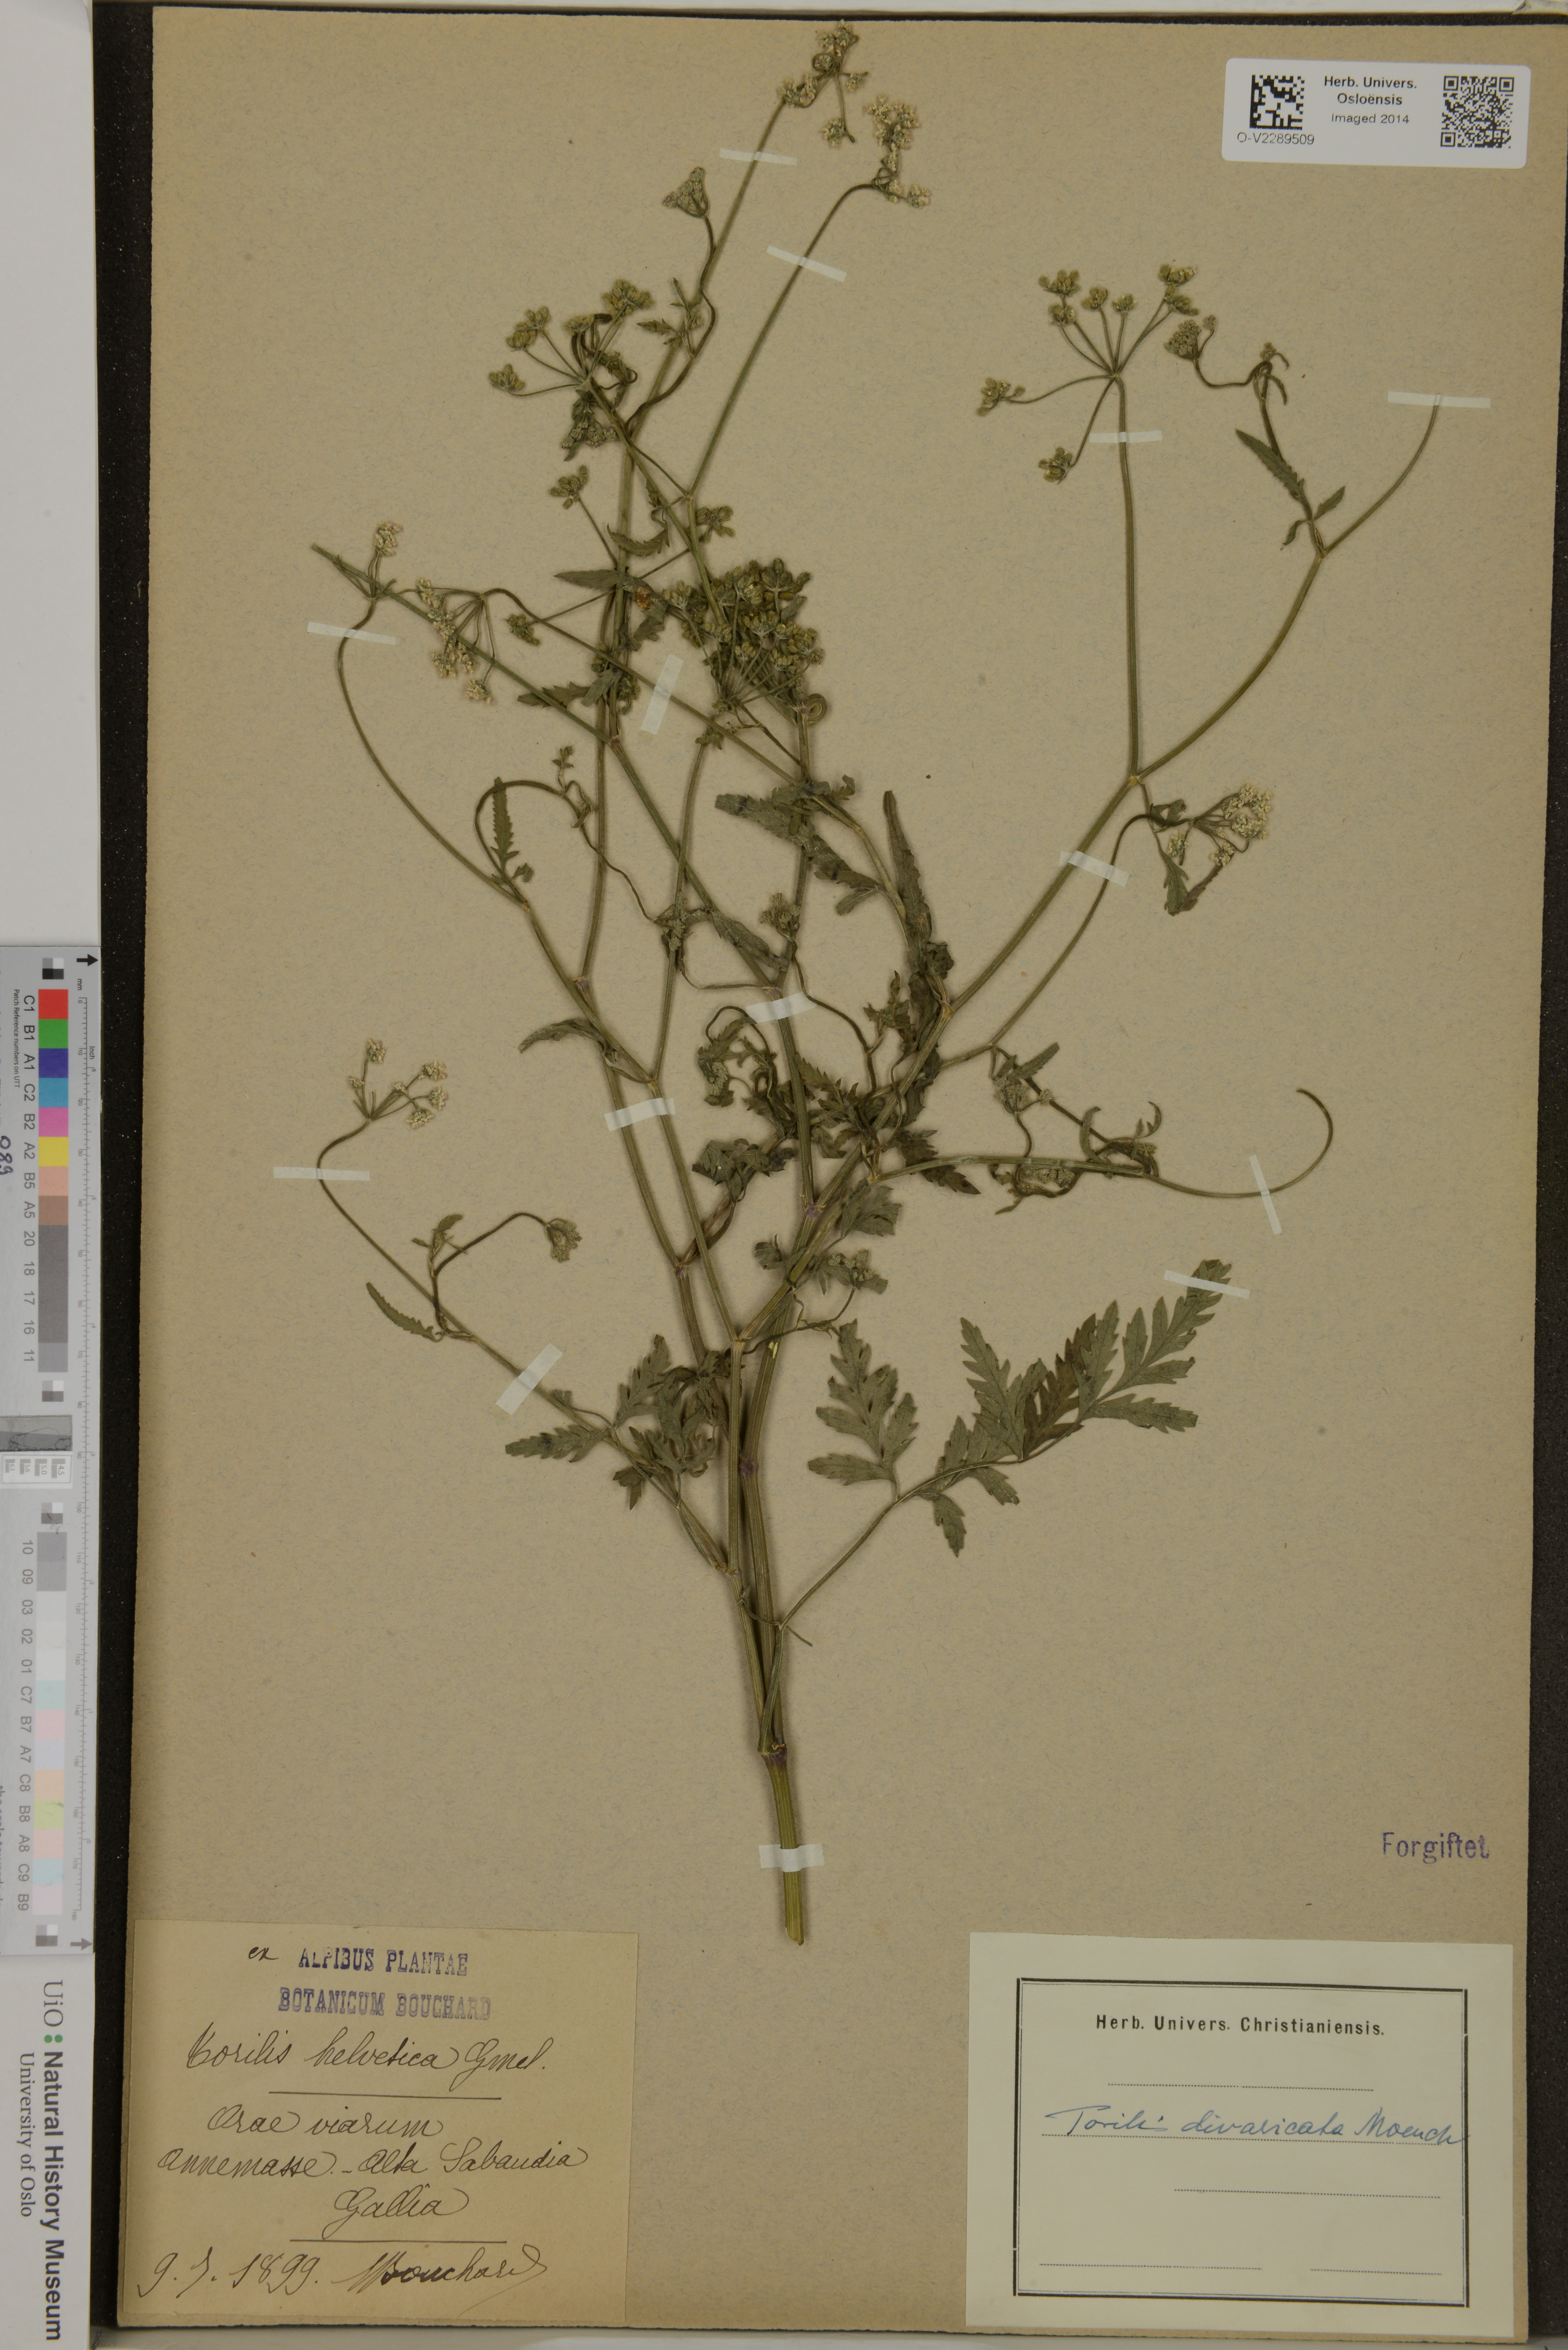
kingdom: Plantae
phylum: Tracheophyta
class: Magnoliopsida
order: Apiales
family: Apiaceae
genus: Torilis
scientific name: Torilis arvensis
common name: Spreading hedge-parsley
